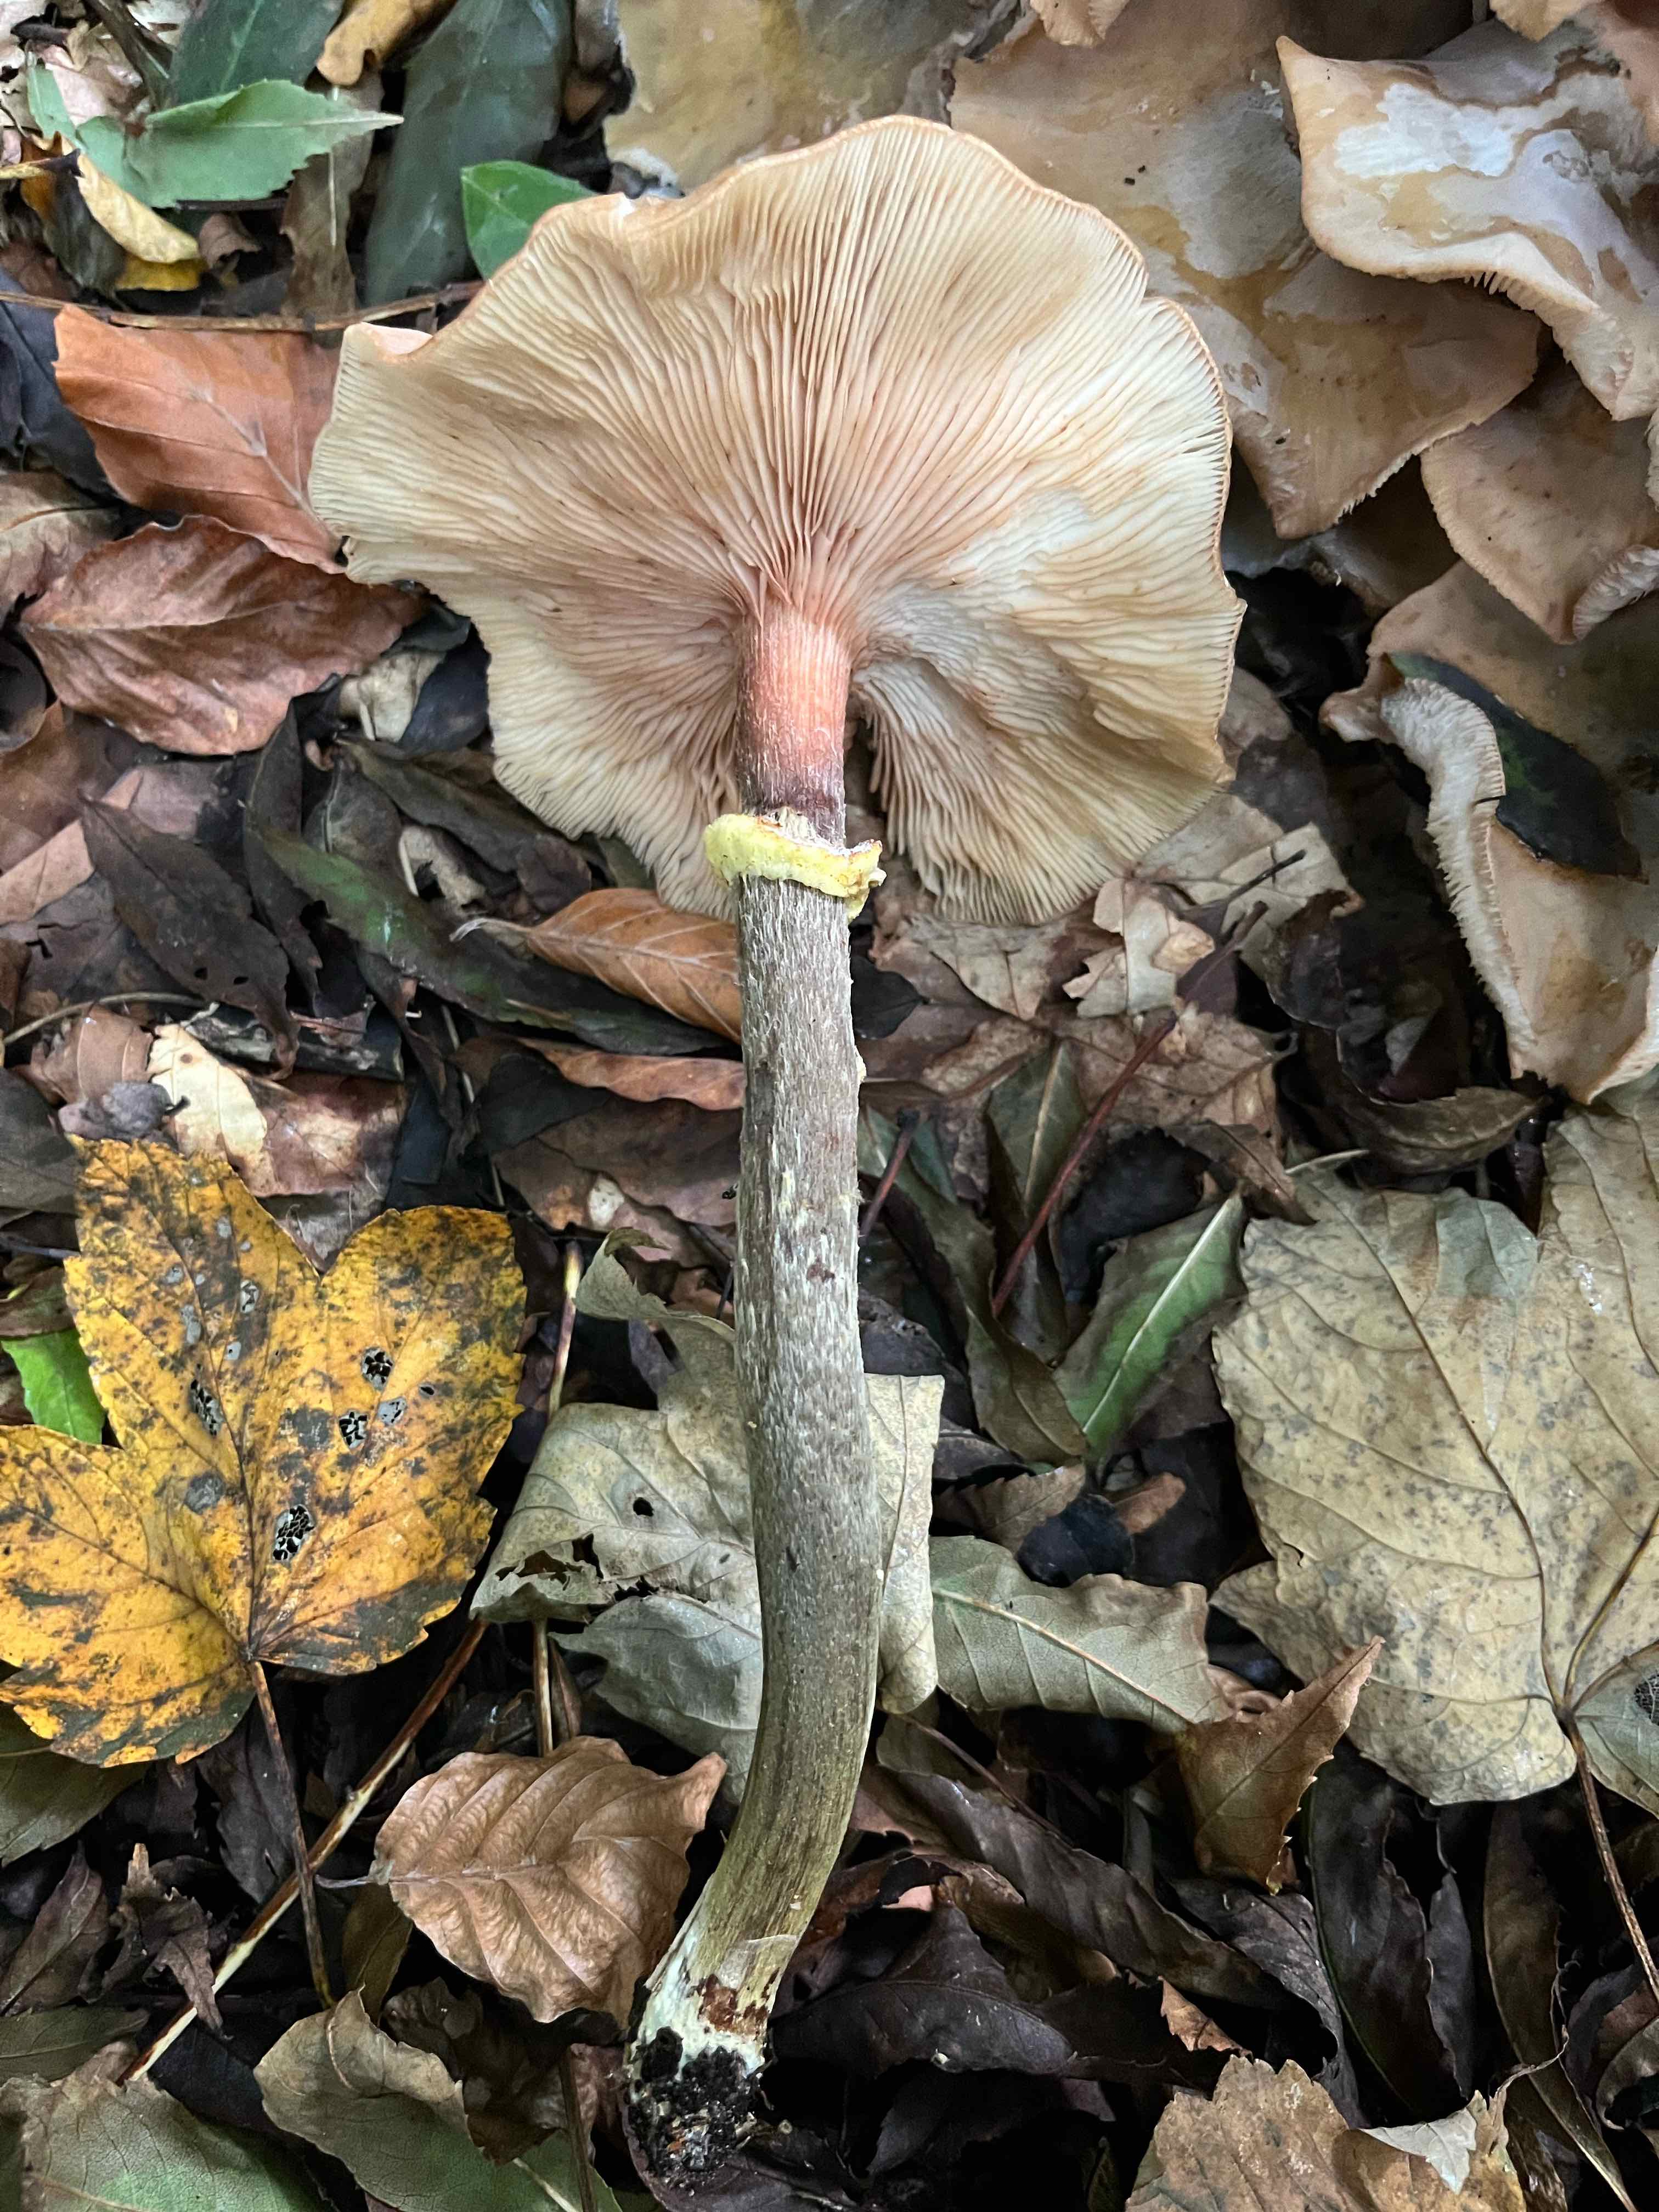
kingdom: Fungi
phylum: Basidiomycota
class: Agaricomycetes
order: Agaricales
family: Physalacriaceae
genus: Armillaria
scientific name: Armillaria lutea
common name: køllestokket honningsvamp
